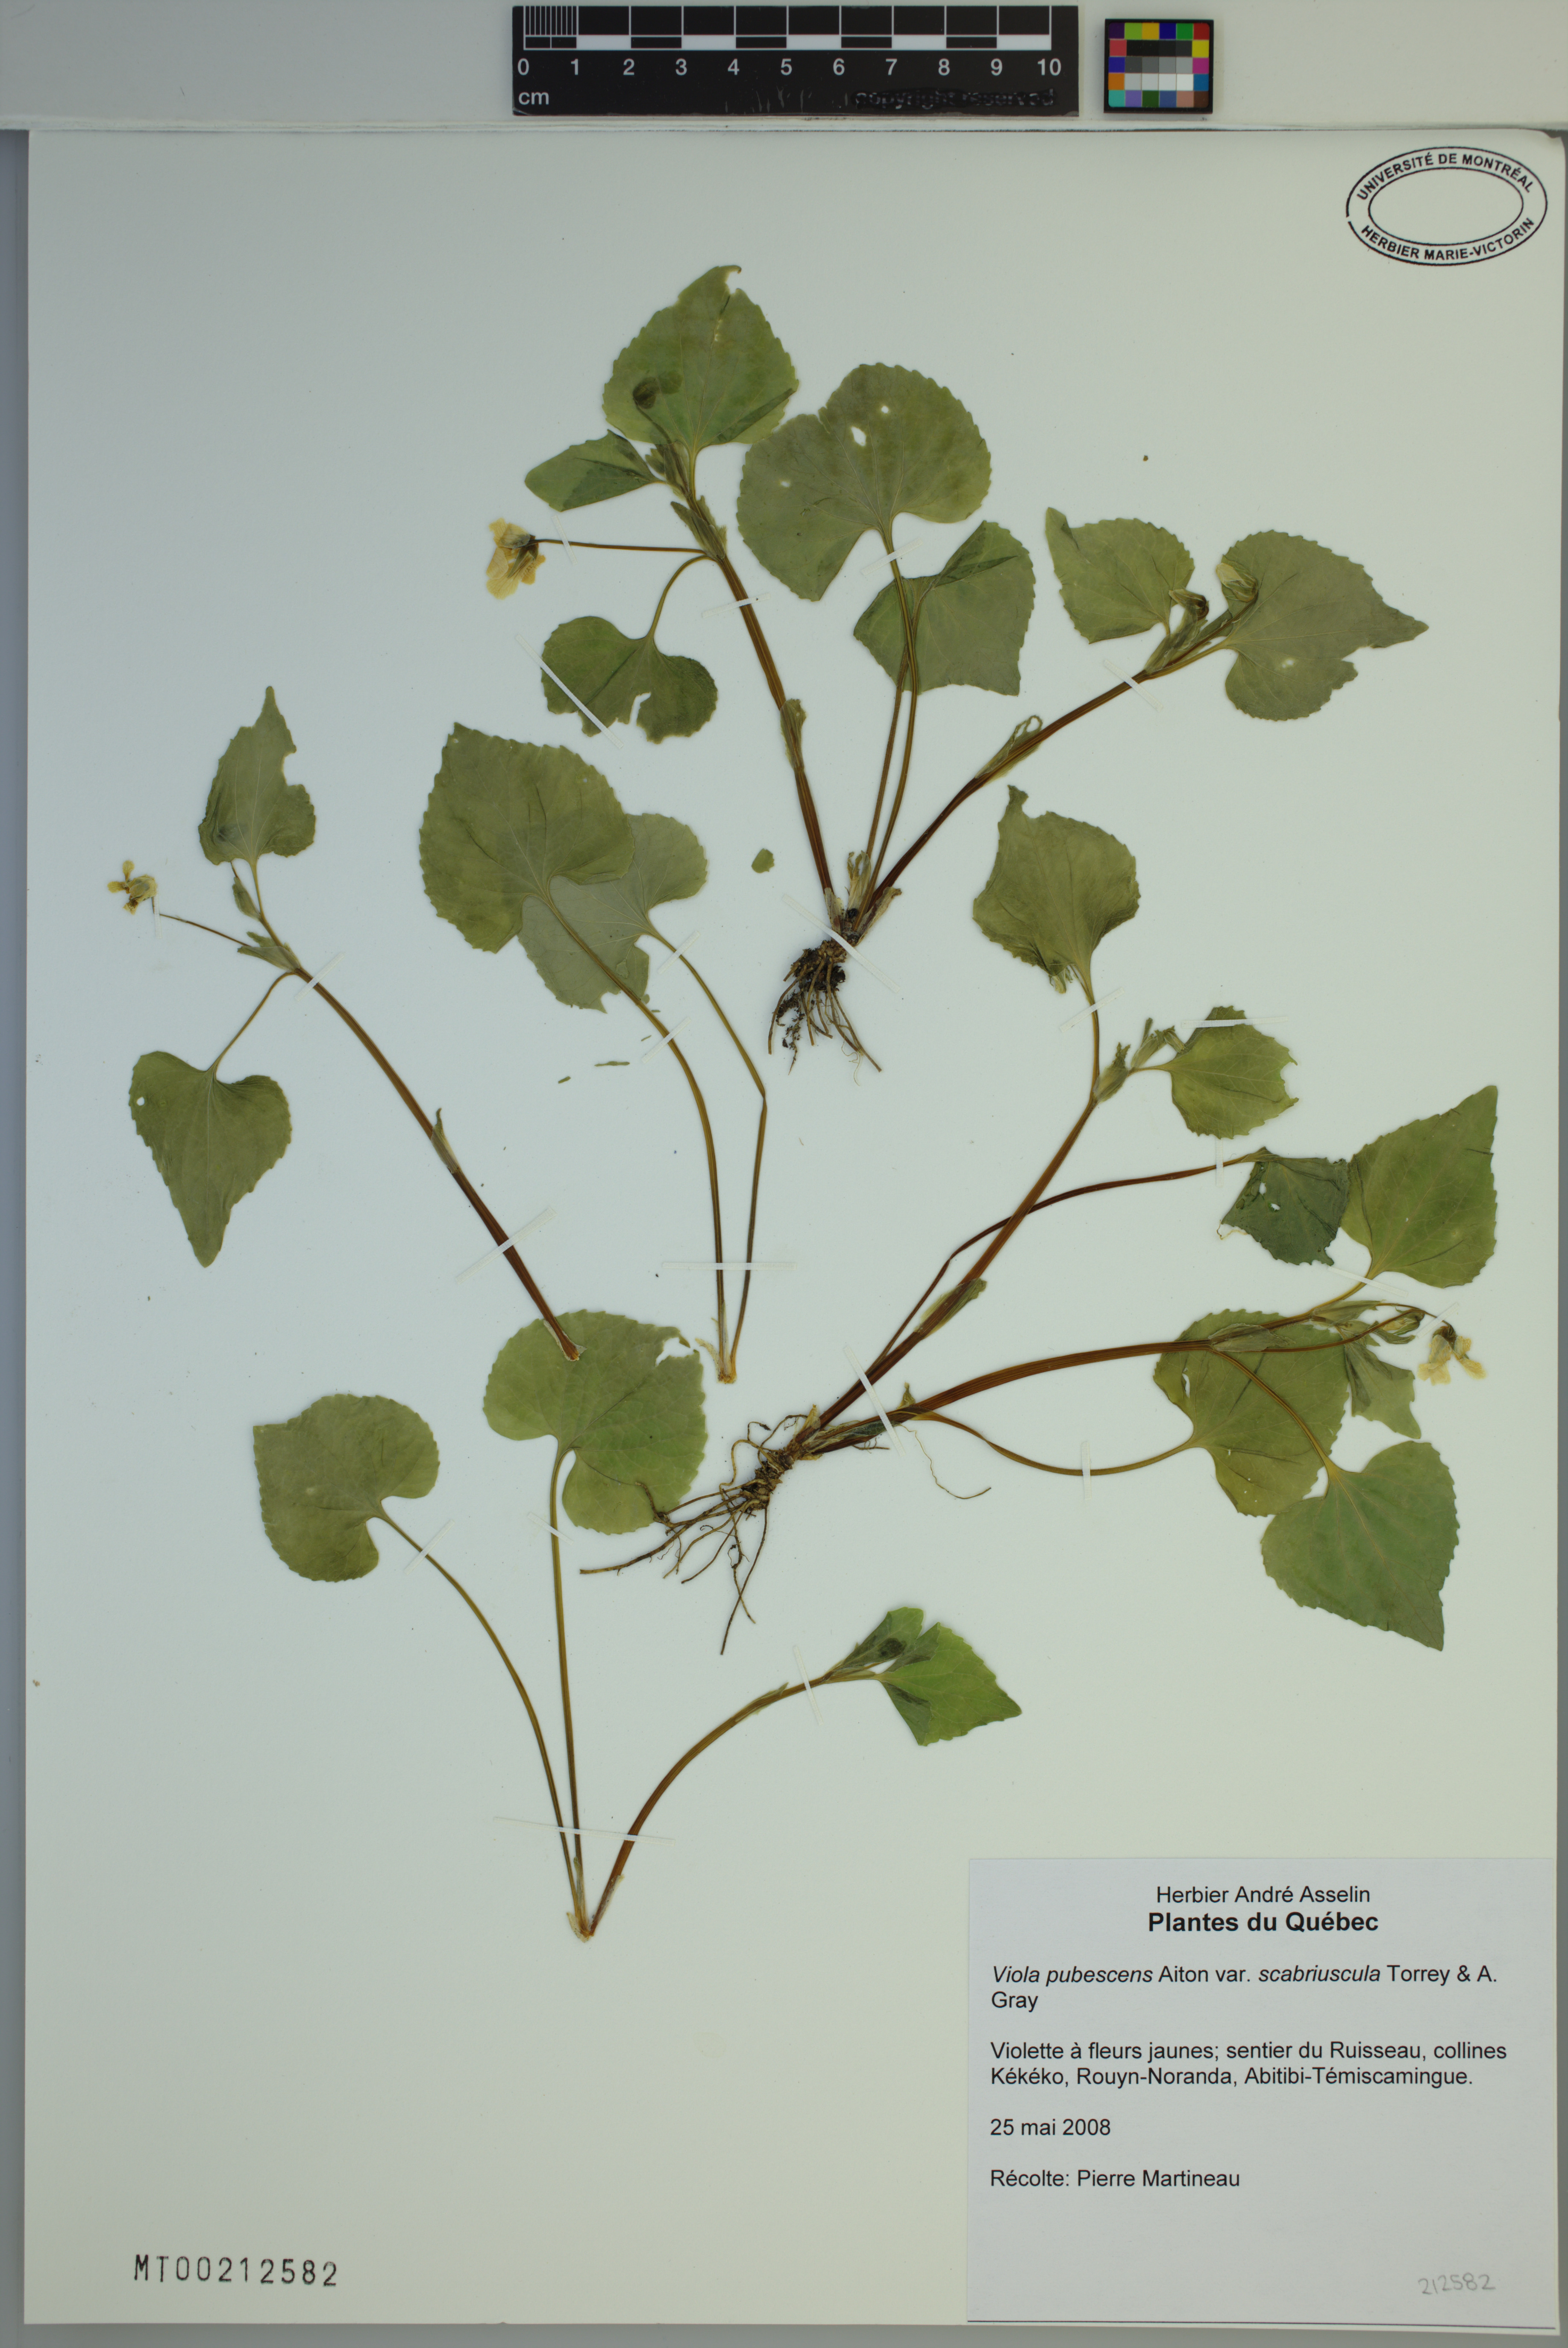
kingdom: Plantae
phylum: Tracheophyta
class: Magnoliopsida
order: Malpighiales
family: Violaceae
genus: Viola
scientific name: Viola eriocarpa
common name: Smooth yellow violet
